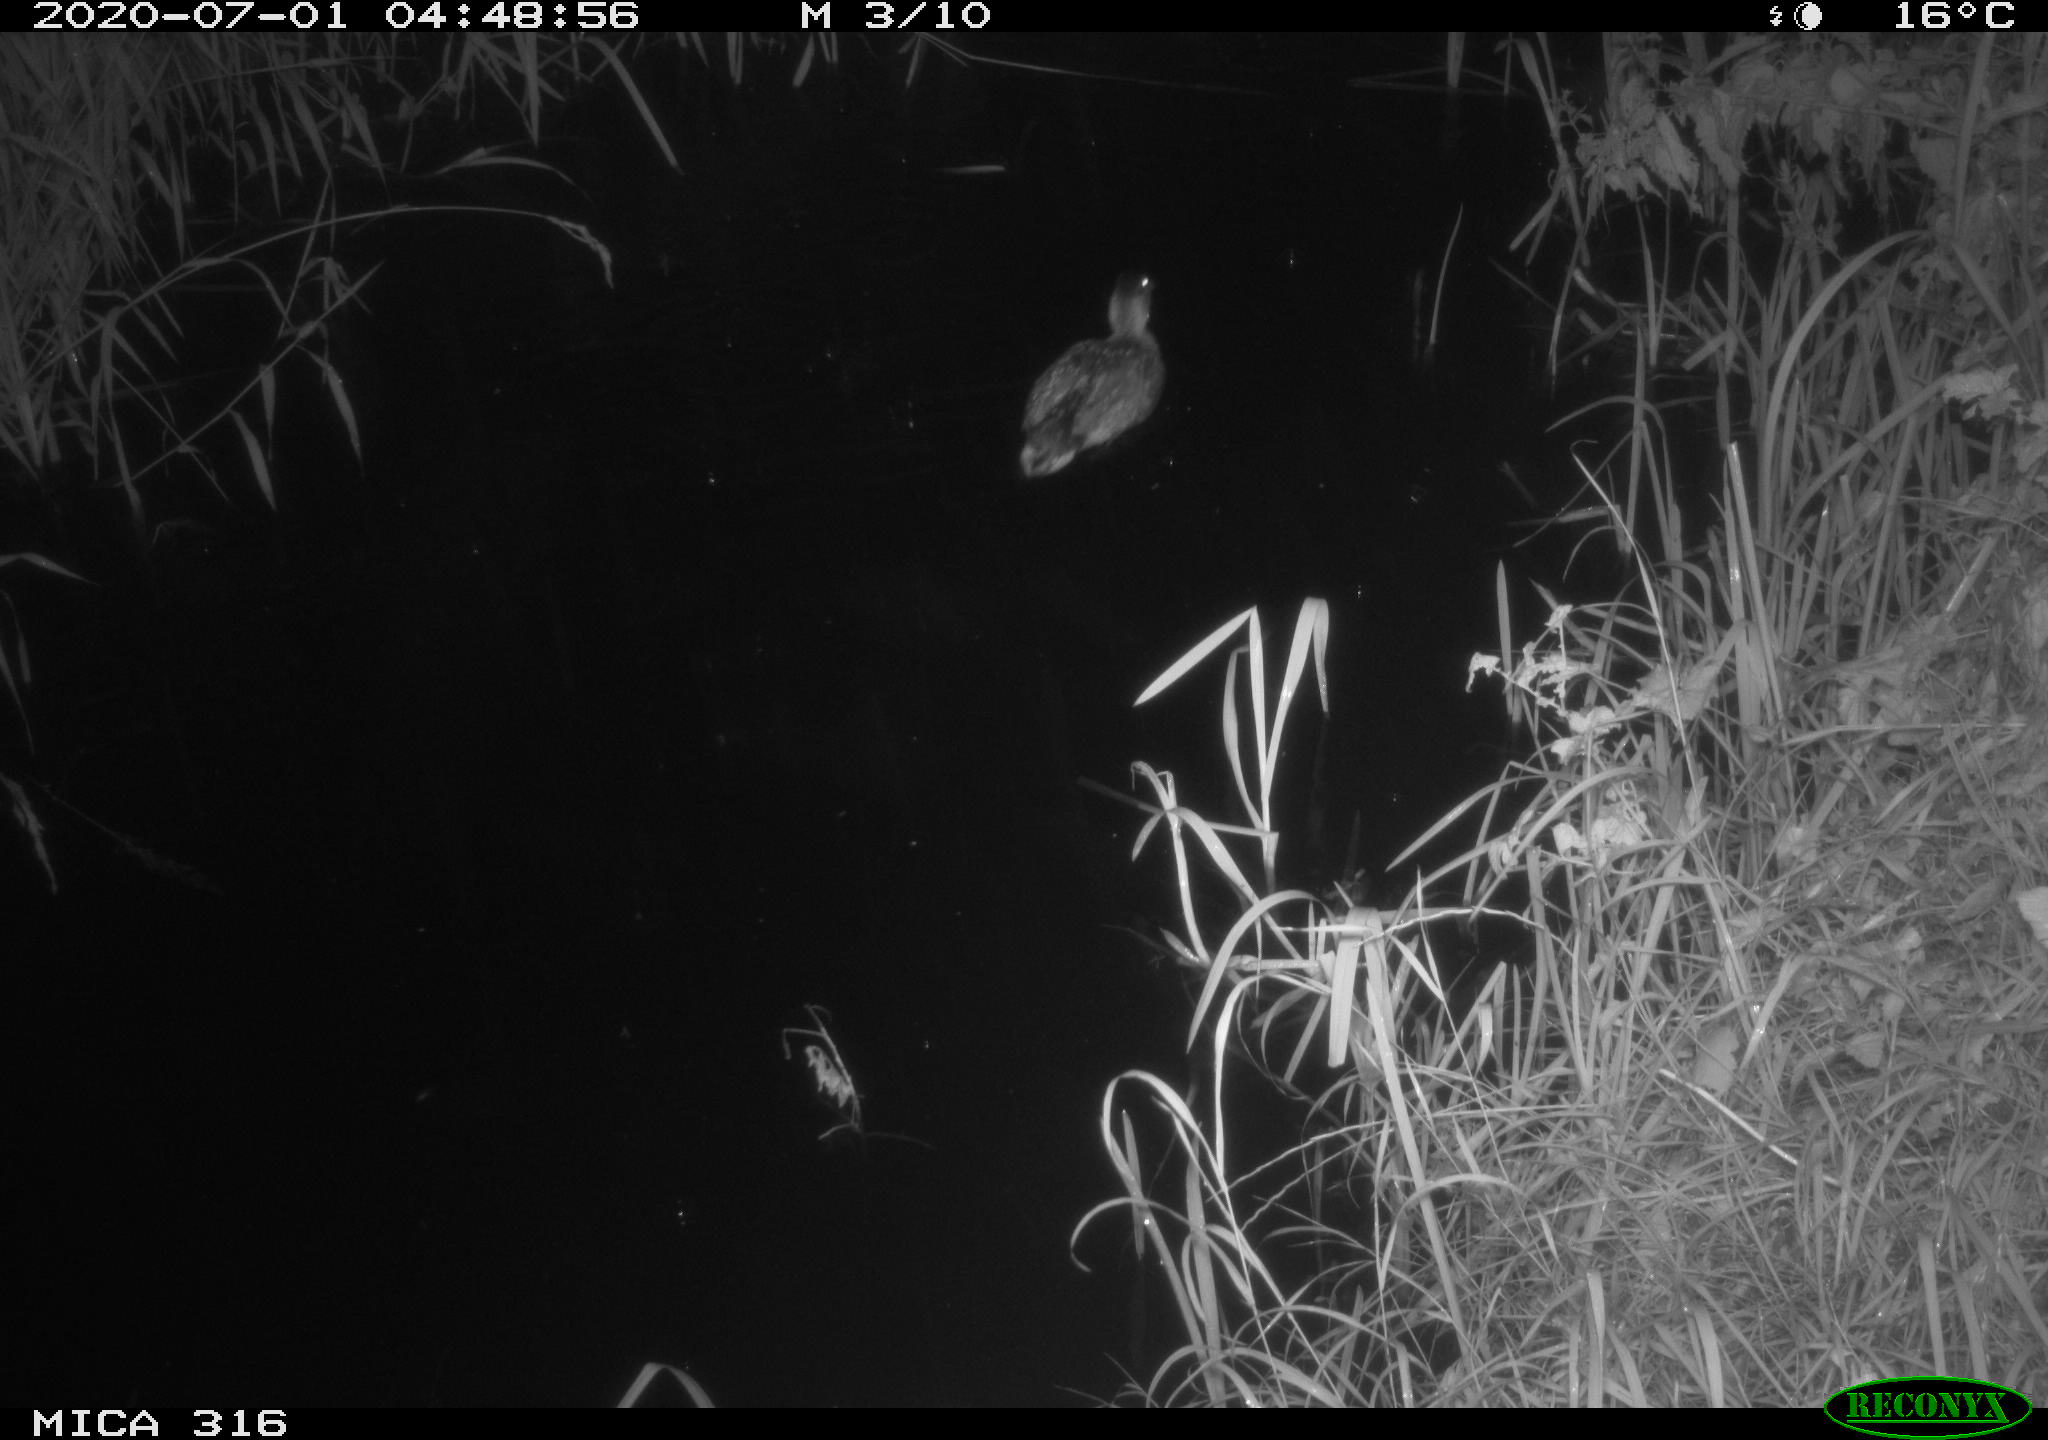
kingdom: Animalia
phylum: Chordata
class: Aves
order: Anseriformes
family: Anatidae
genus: Anas
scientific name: Anas platyrhynchos
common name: Mallard
